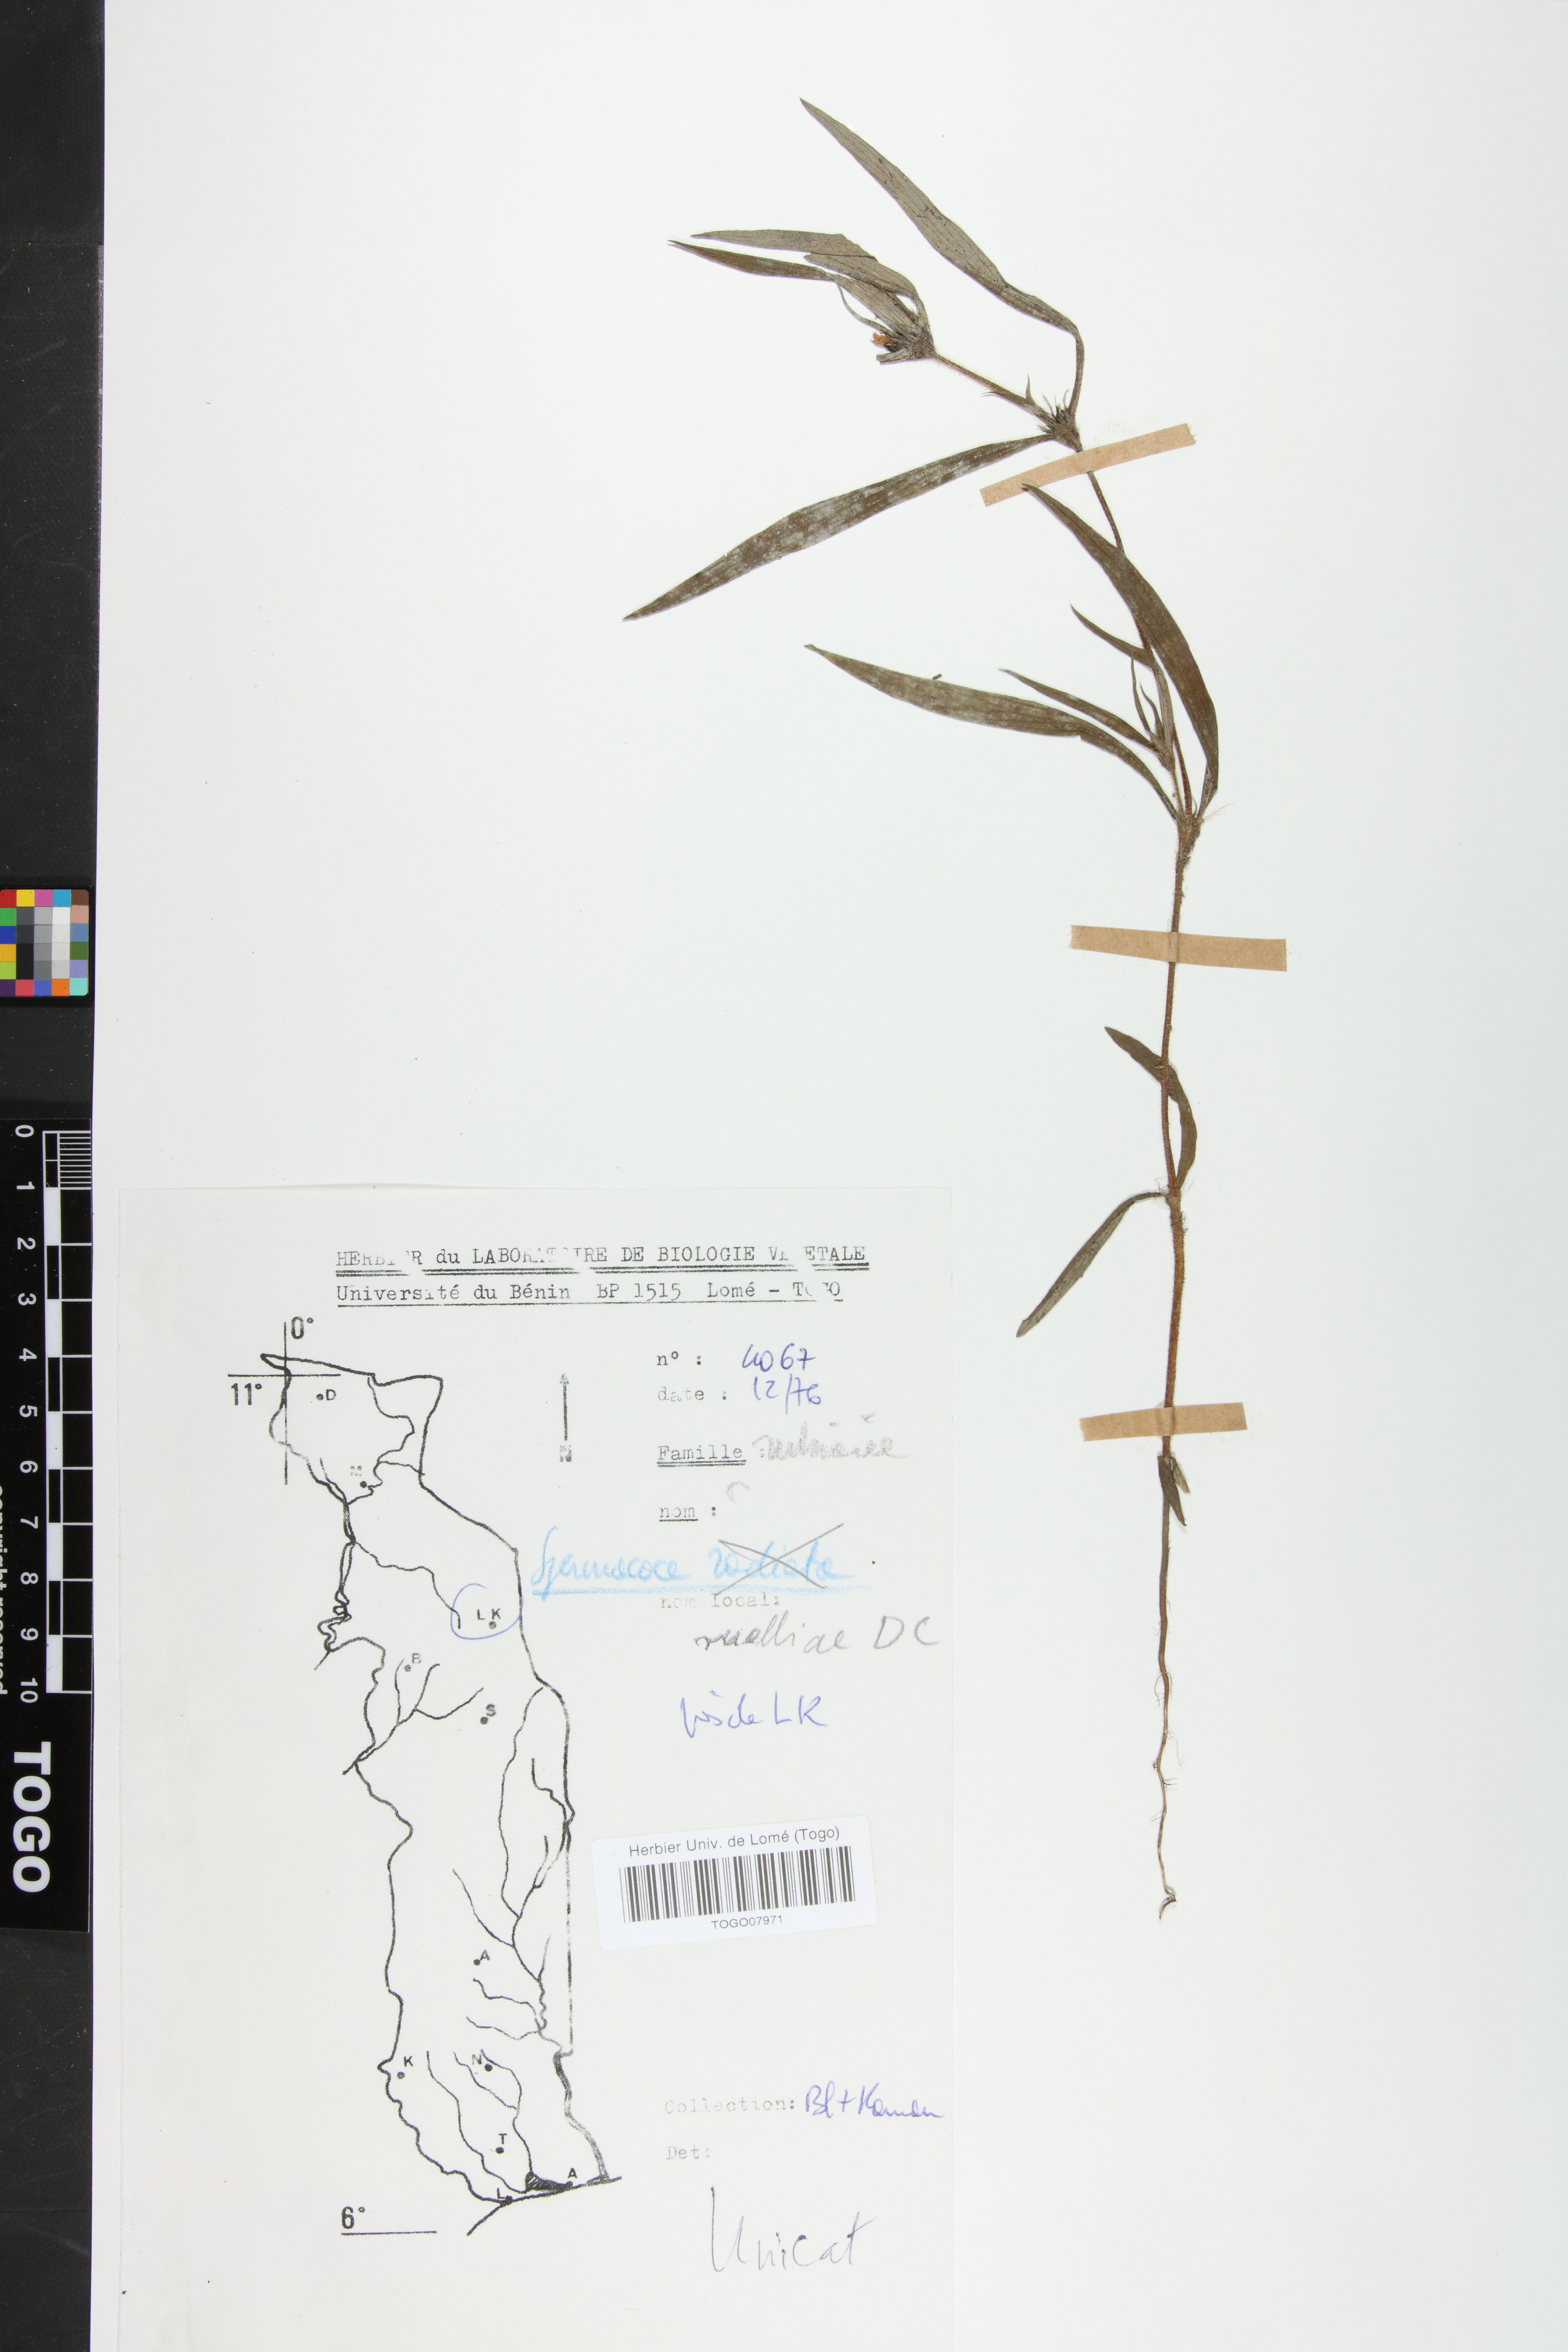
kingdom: Plantae
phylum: Tracheophyta
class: Magnoliopsida
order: Gentianales
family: Rubiaceae
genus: Spermacoce
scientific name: Spermacoce ruelliae
